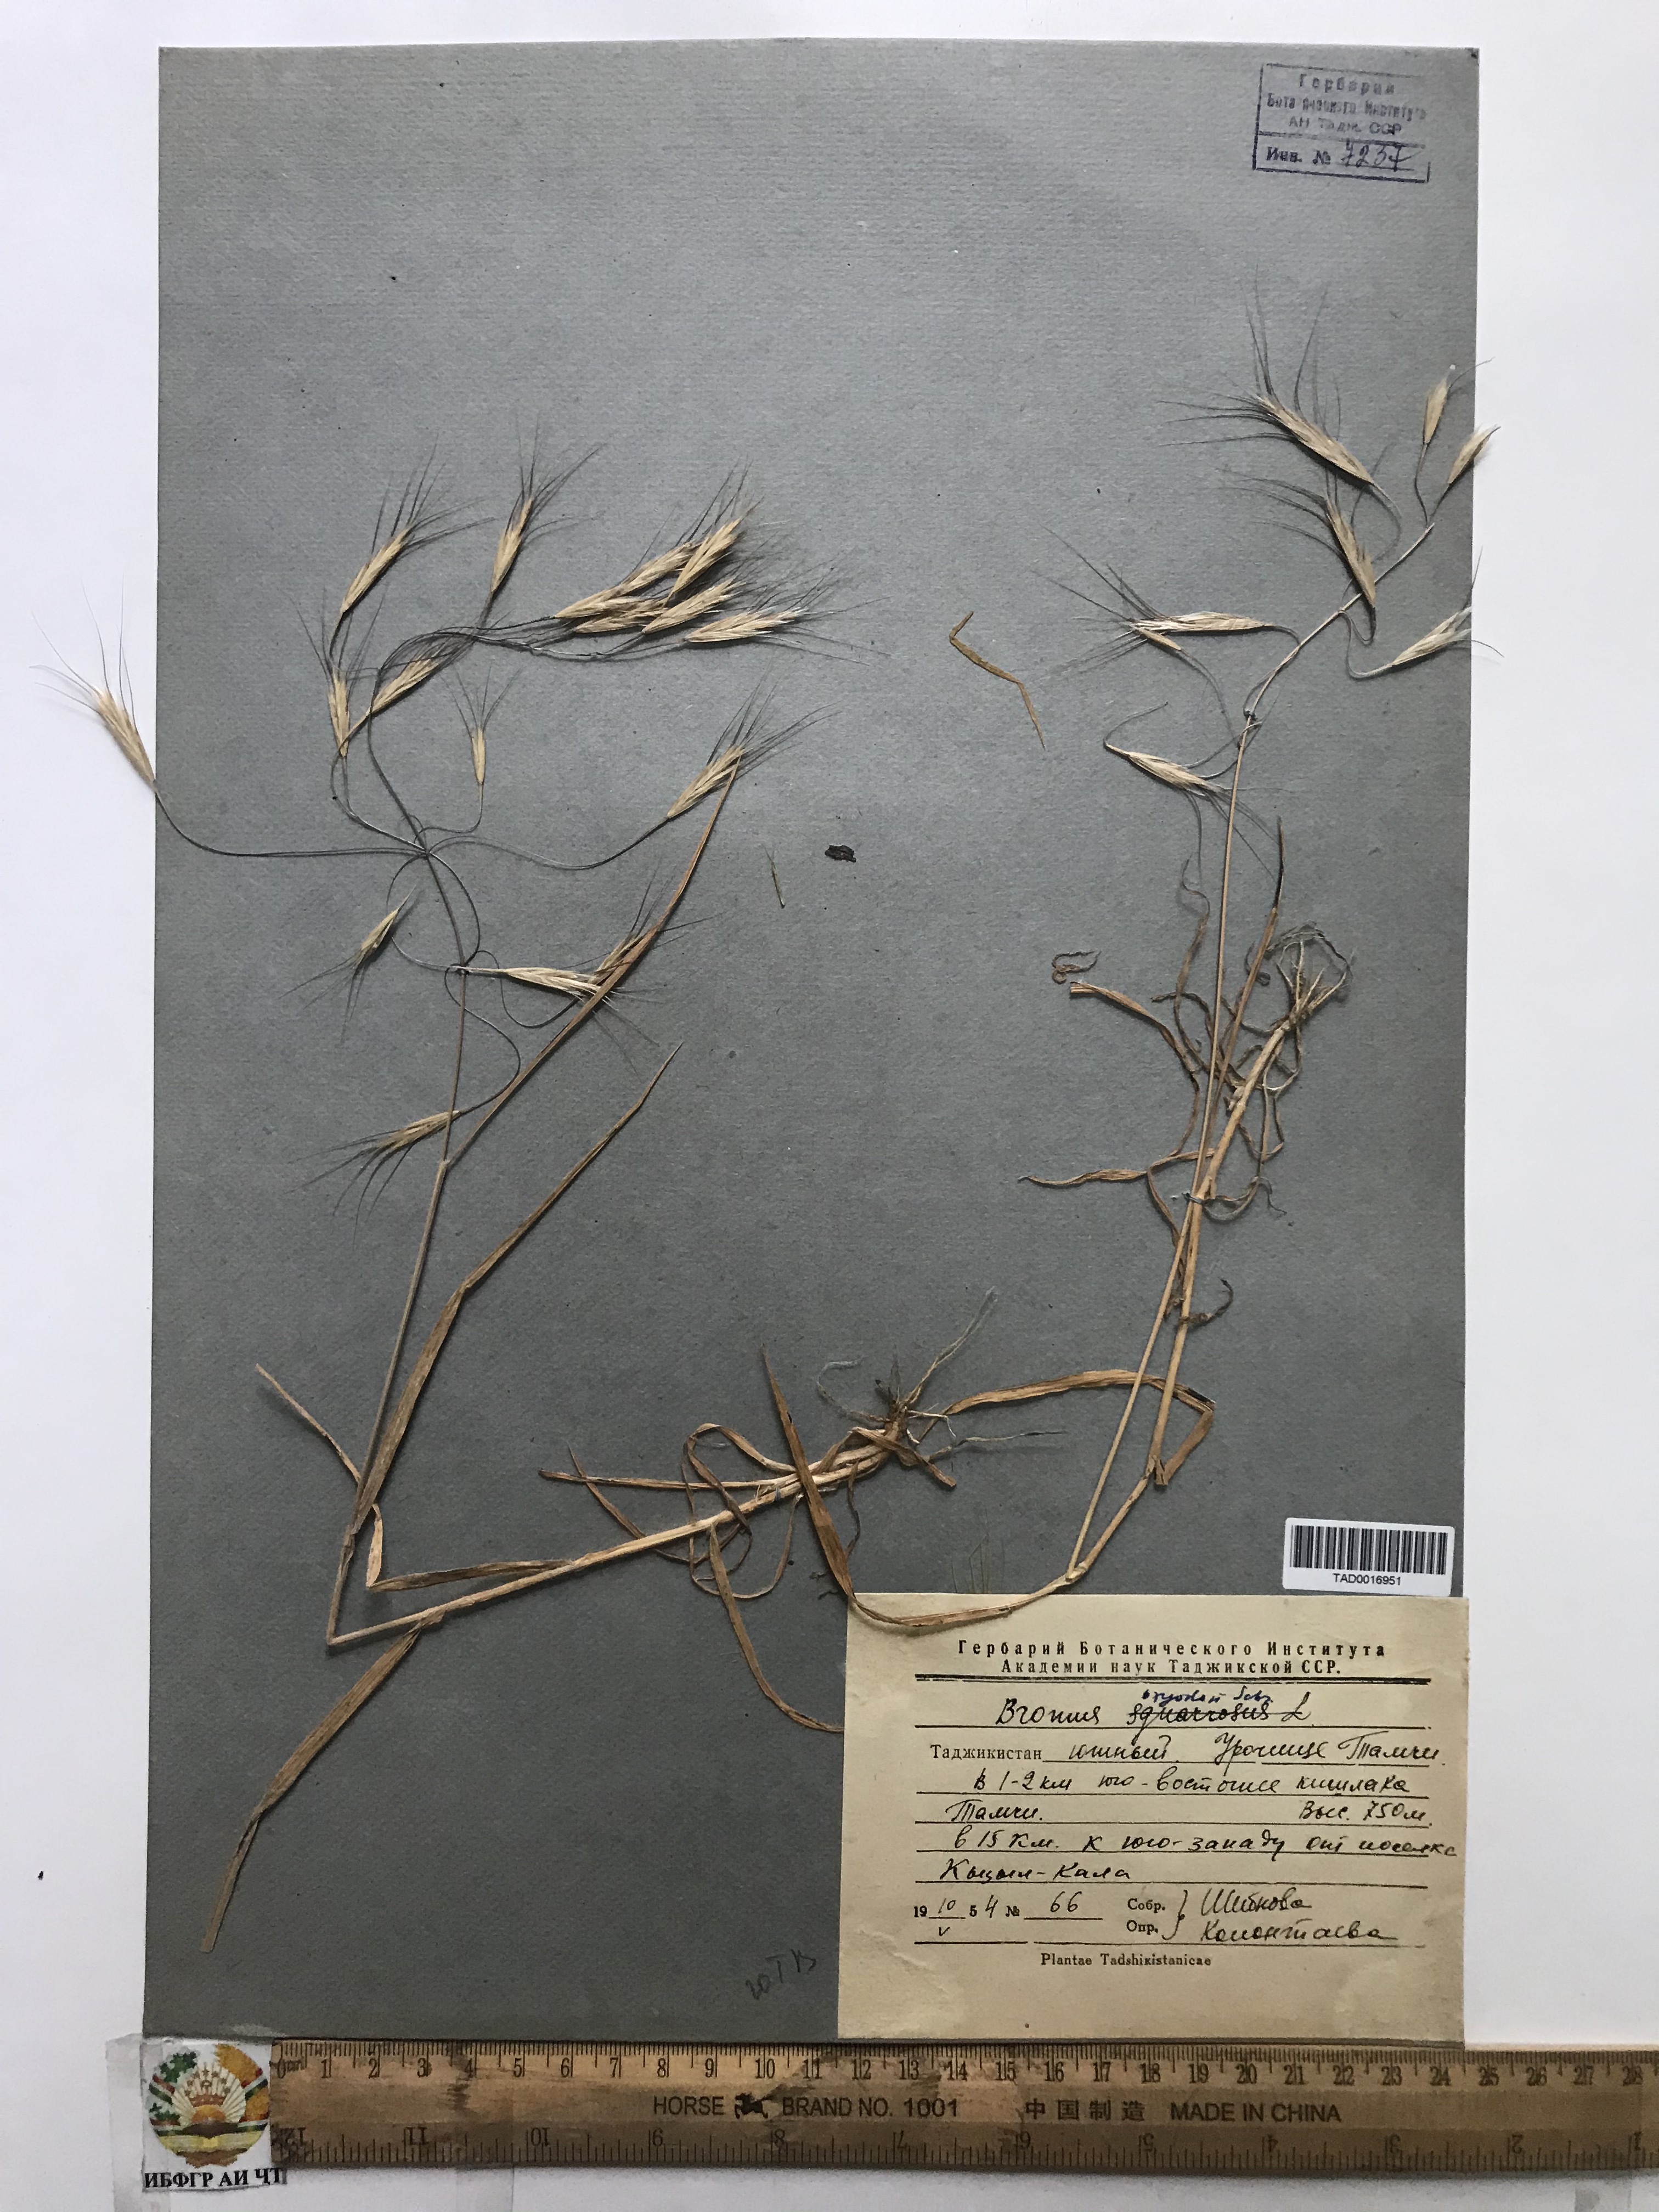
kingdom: Plantae
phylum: Tracheophyta
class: Liliopsida
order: Poales
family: Poaceae
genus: Bromus
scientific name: Bromus oxyodon
